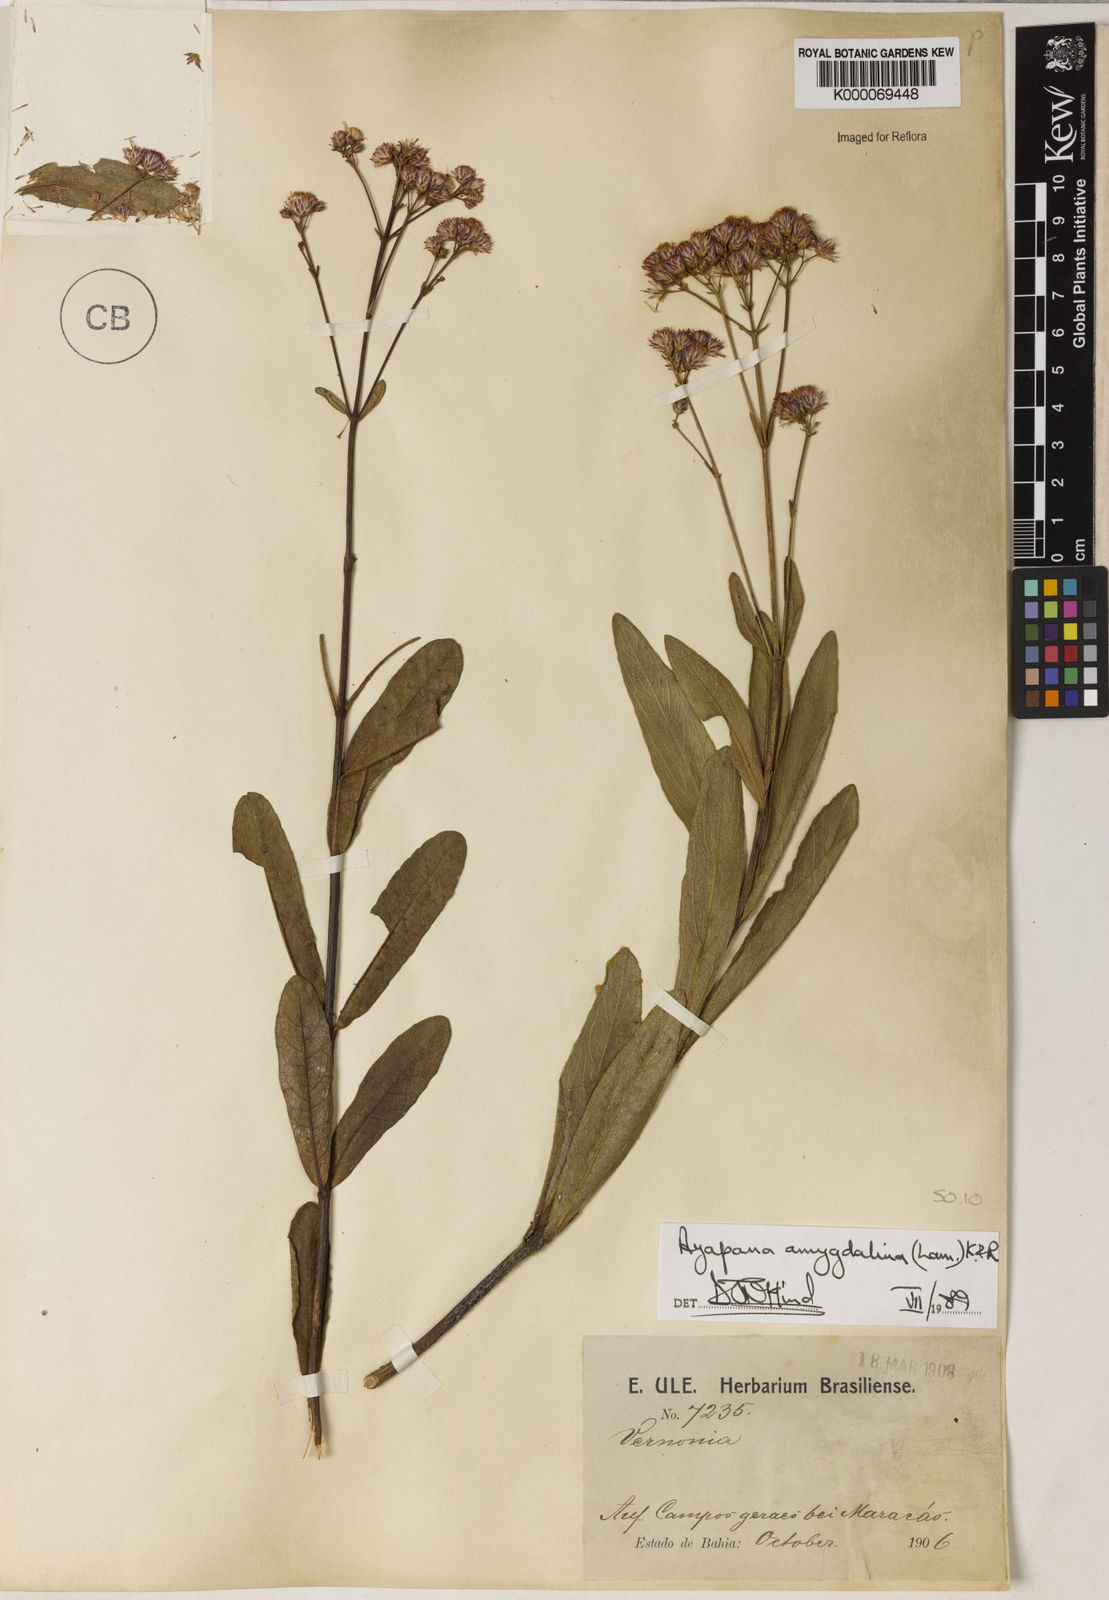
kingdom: Plantae
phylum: Tracheophyta
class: Magnoliopsida
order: Asterales
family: Asteraceae
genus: Ayapana
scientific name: Ayapana amygdalina
